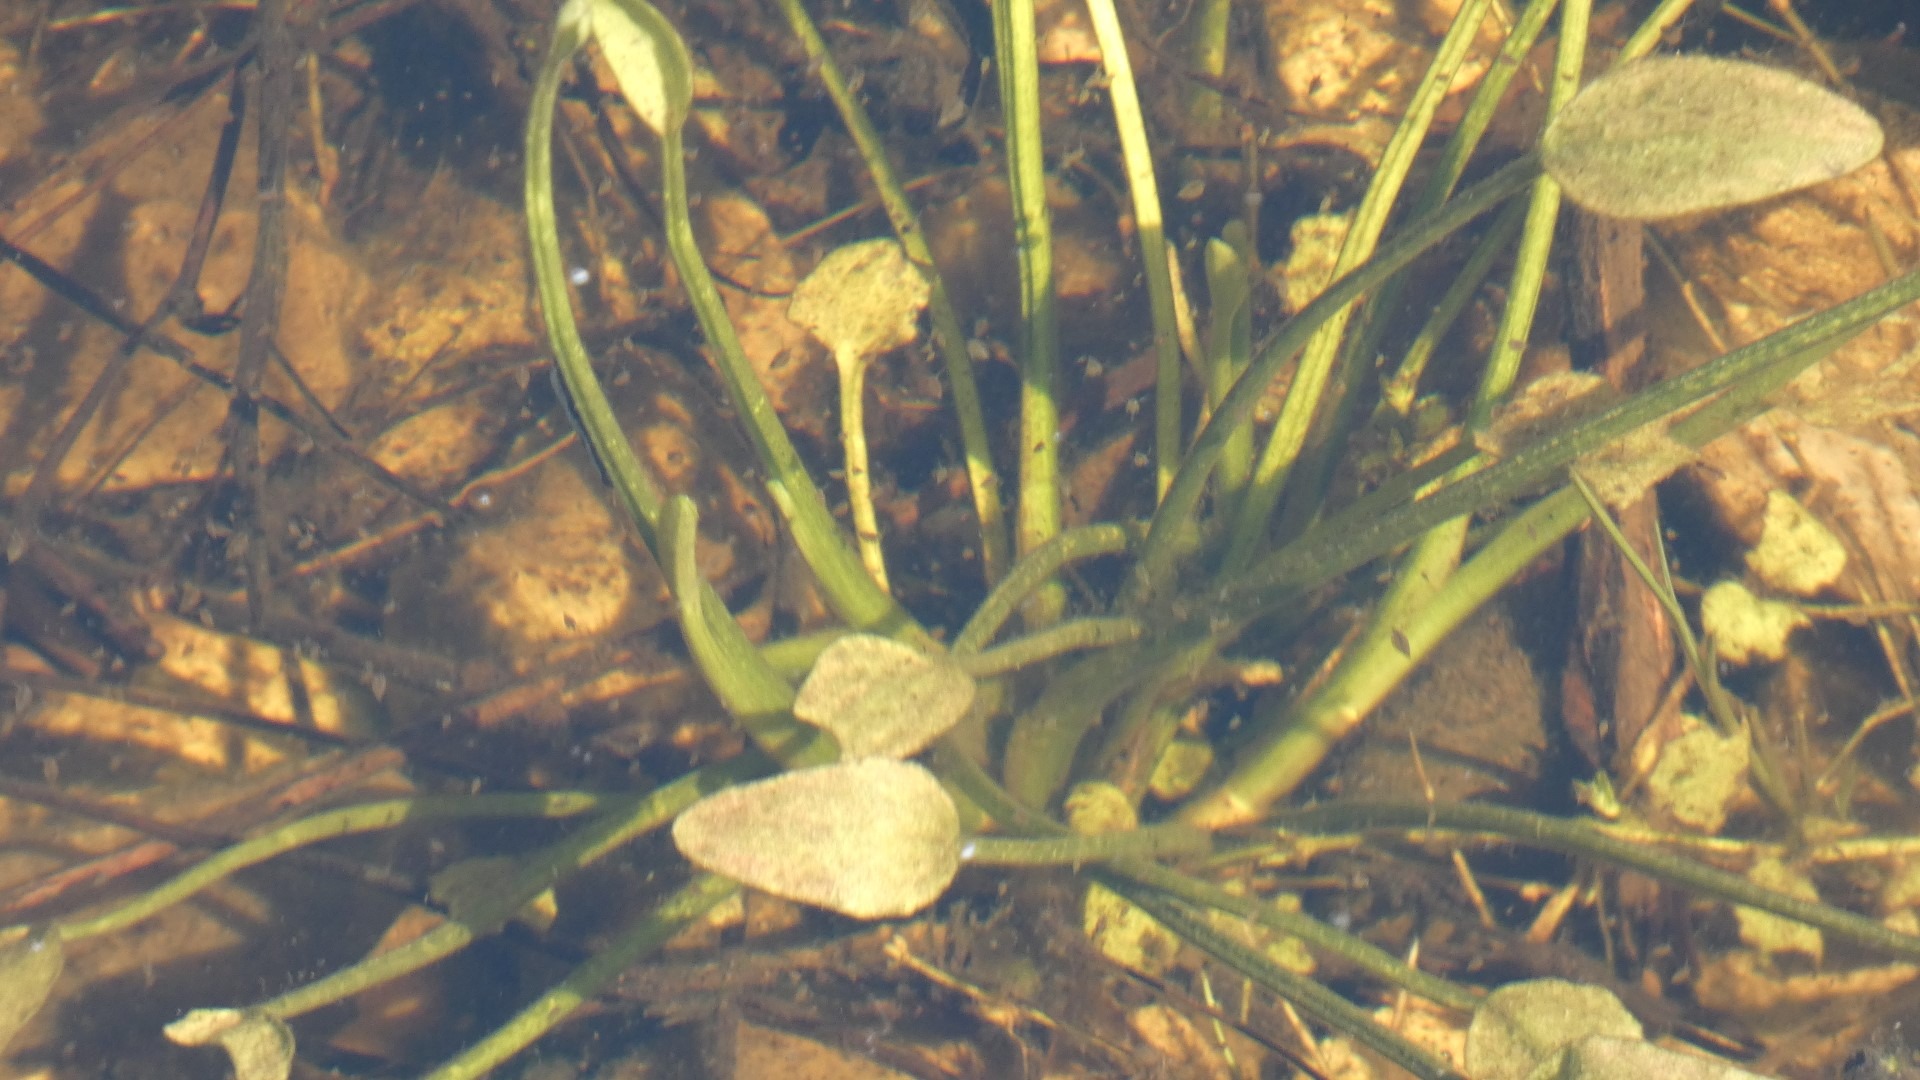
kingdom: Plantae
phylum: Tracheophyta
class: Liliopsida
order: Alismatales
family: Alismataceae
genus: Alisma
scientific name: Alisma plantago-aquatica
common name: Vejbred-skeblad
